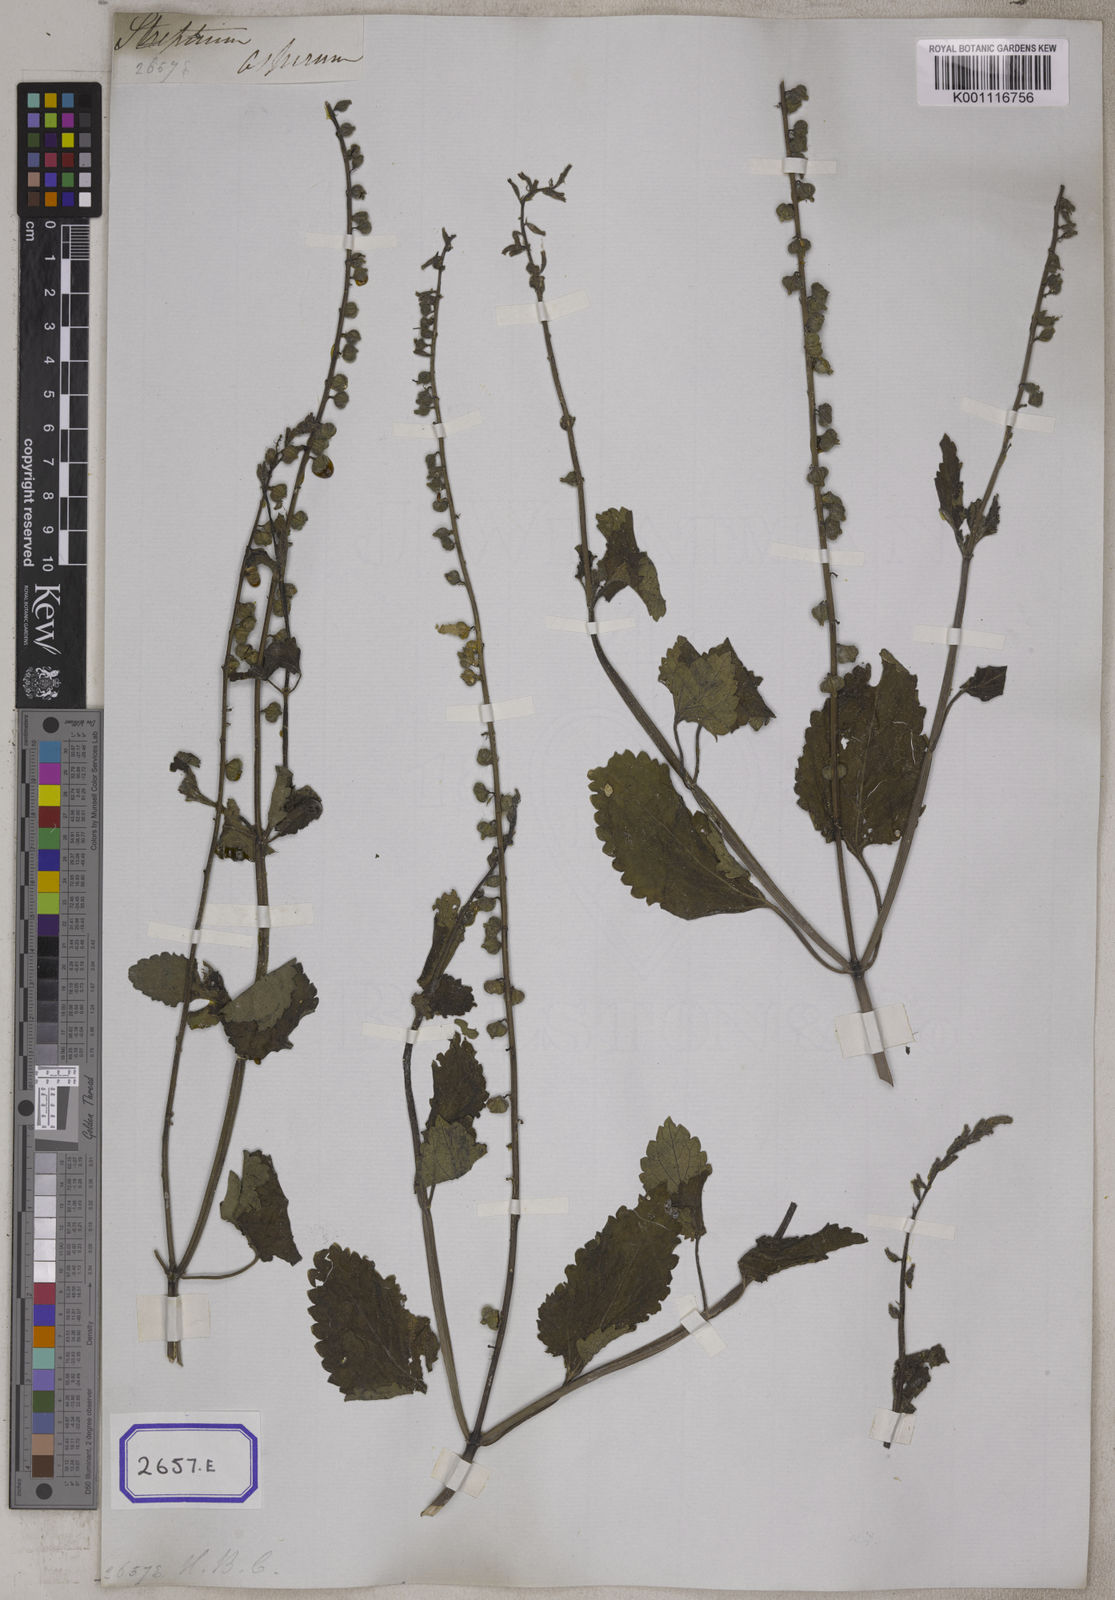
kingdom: Plantae
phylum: Tracheophyta
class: Magnoliopsida
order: Lamiales
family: Verbenaceae
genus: Priva
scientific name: Priva cordifolia
